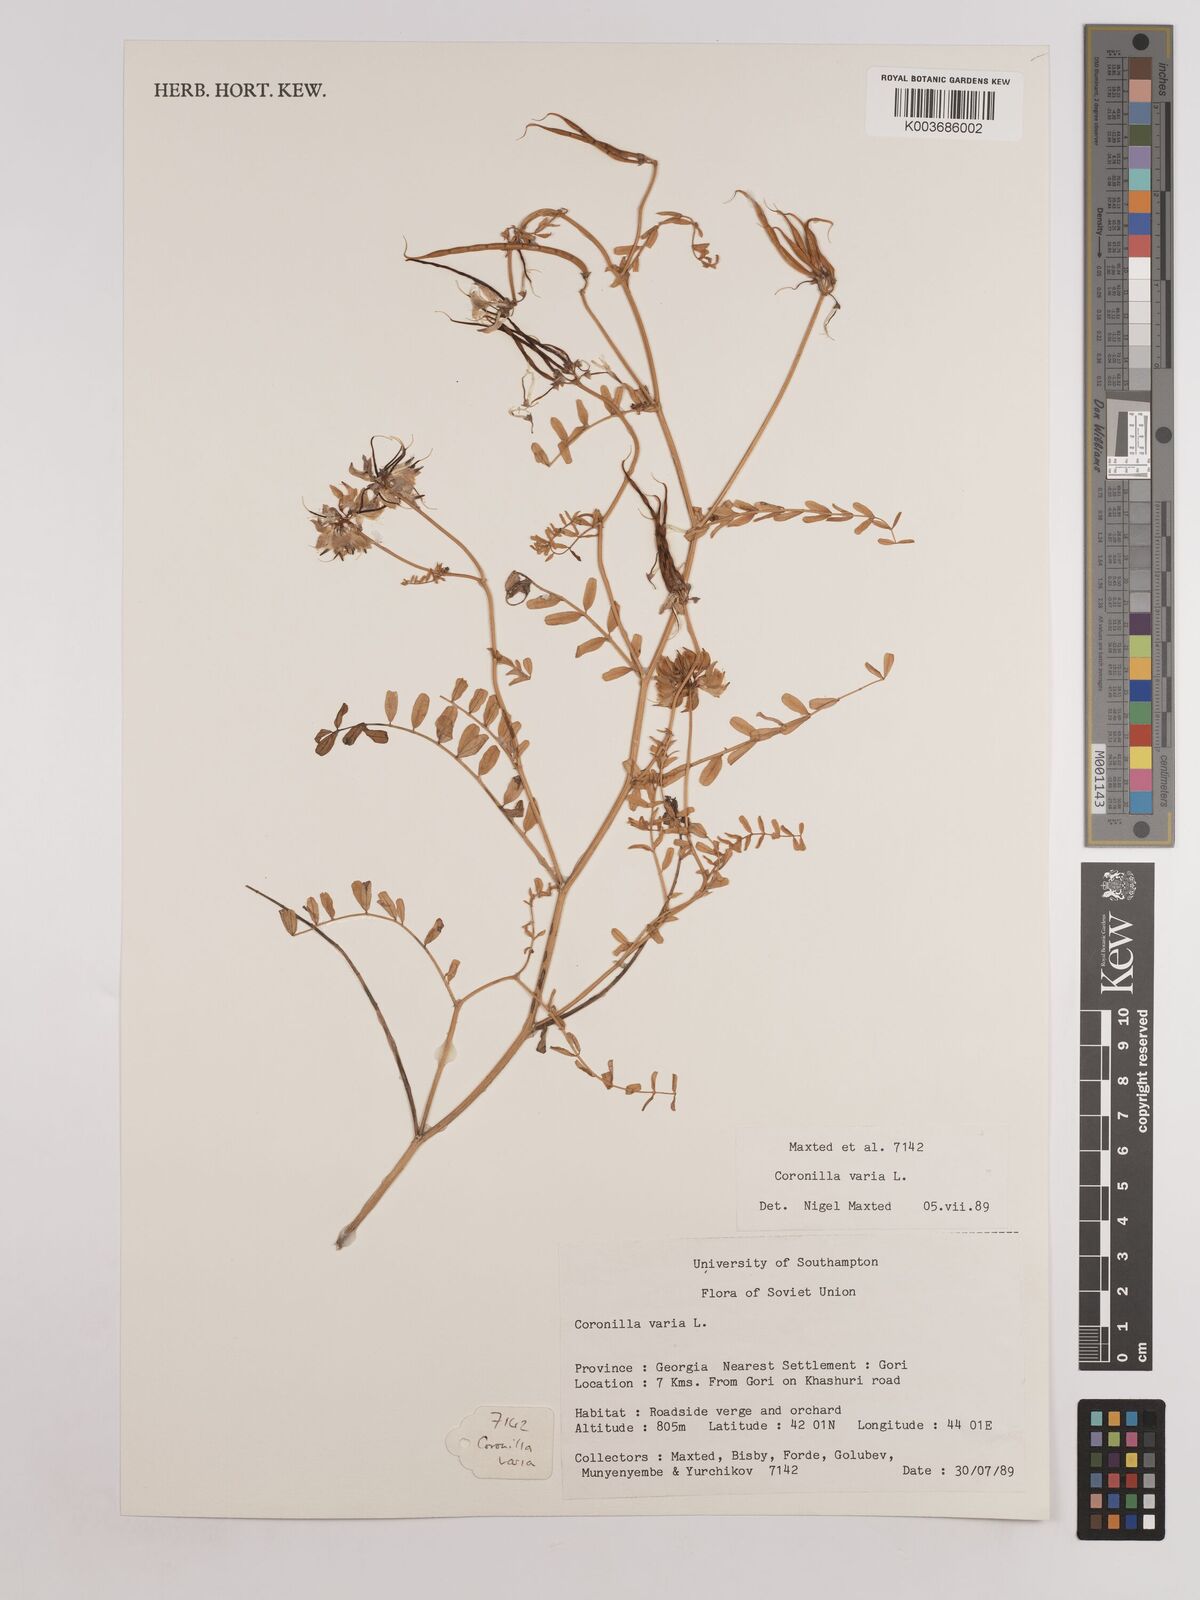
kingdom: Plantae
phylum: Tracheophyta
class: Magnoliopsida
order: Fabales
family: Fabaceae
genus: Coronilla
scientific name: Coronilla varia
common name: Crownvetch
